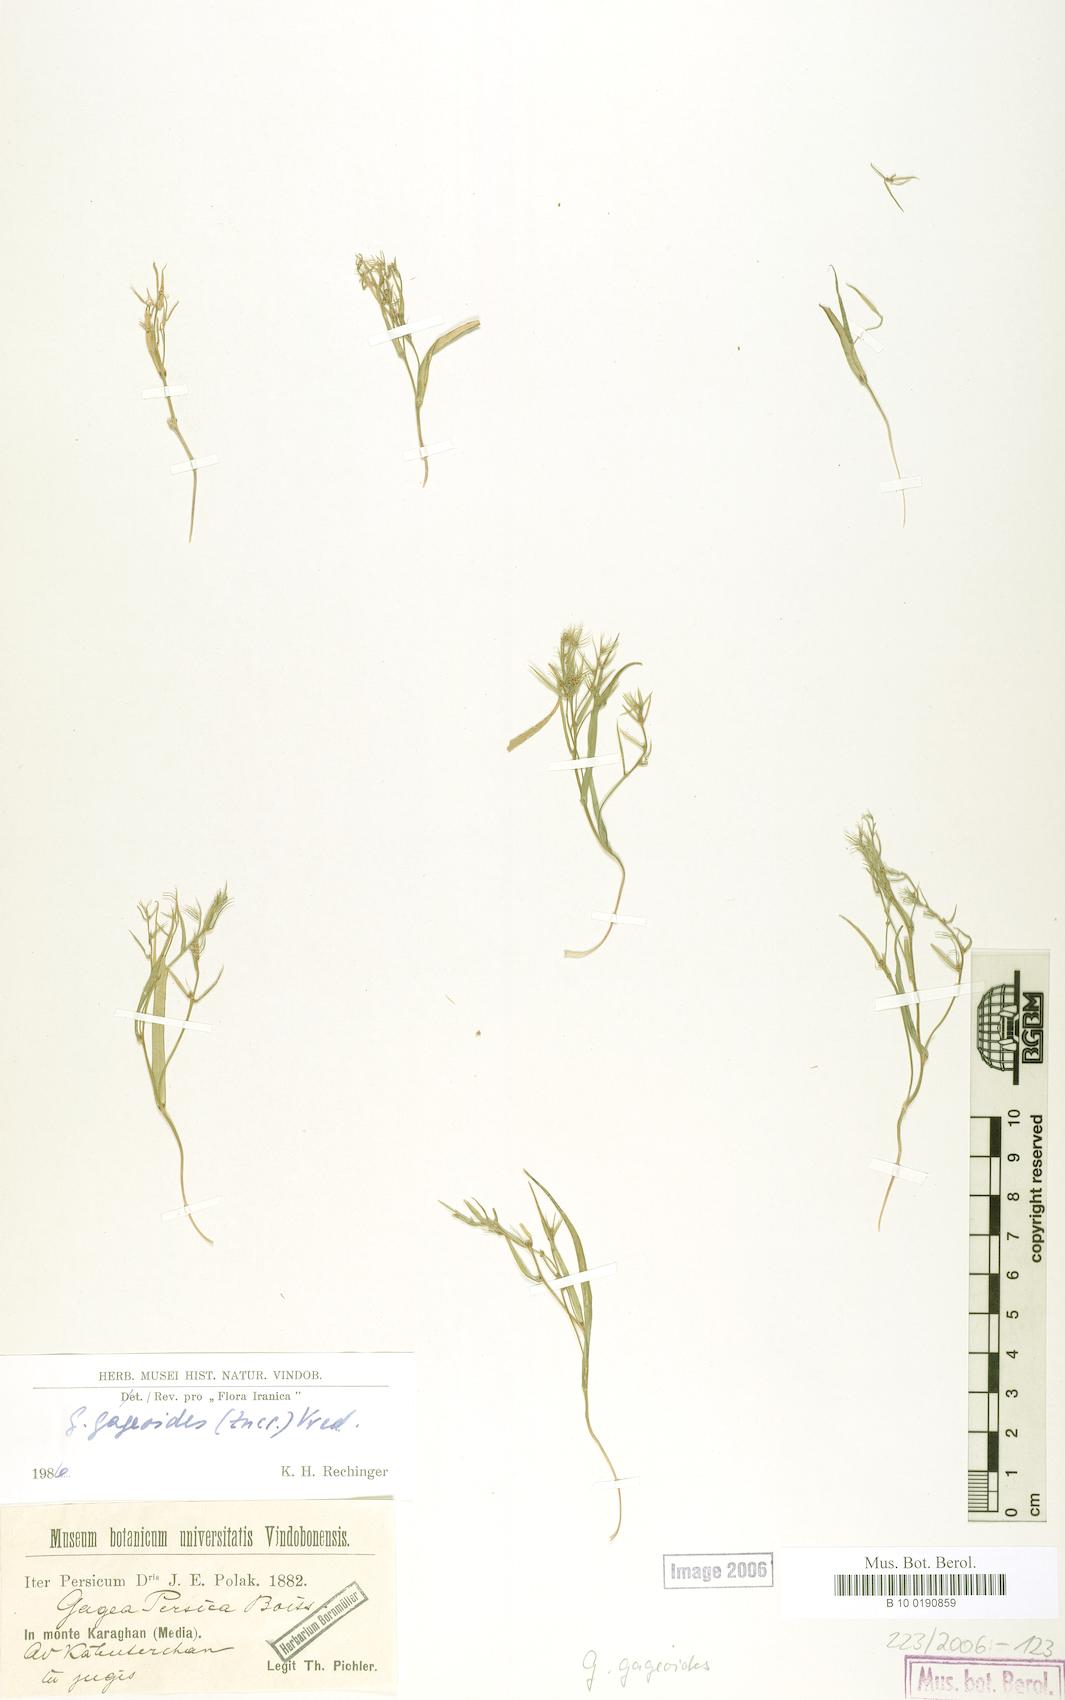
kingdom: Plantae
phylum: Tracheophyta
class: Liliopsida
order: Liliales
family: Liliaceae
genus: Gagea
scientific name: Gagea gageoides
